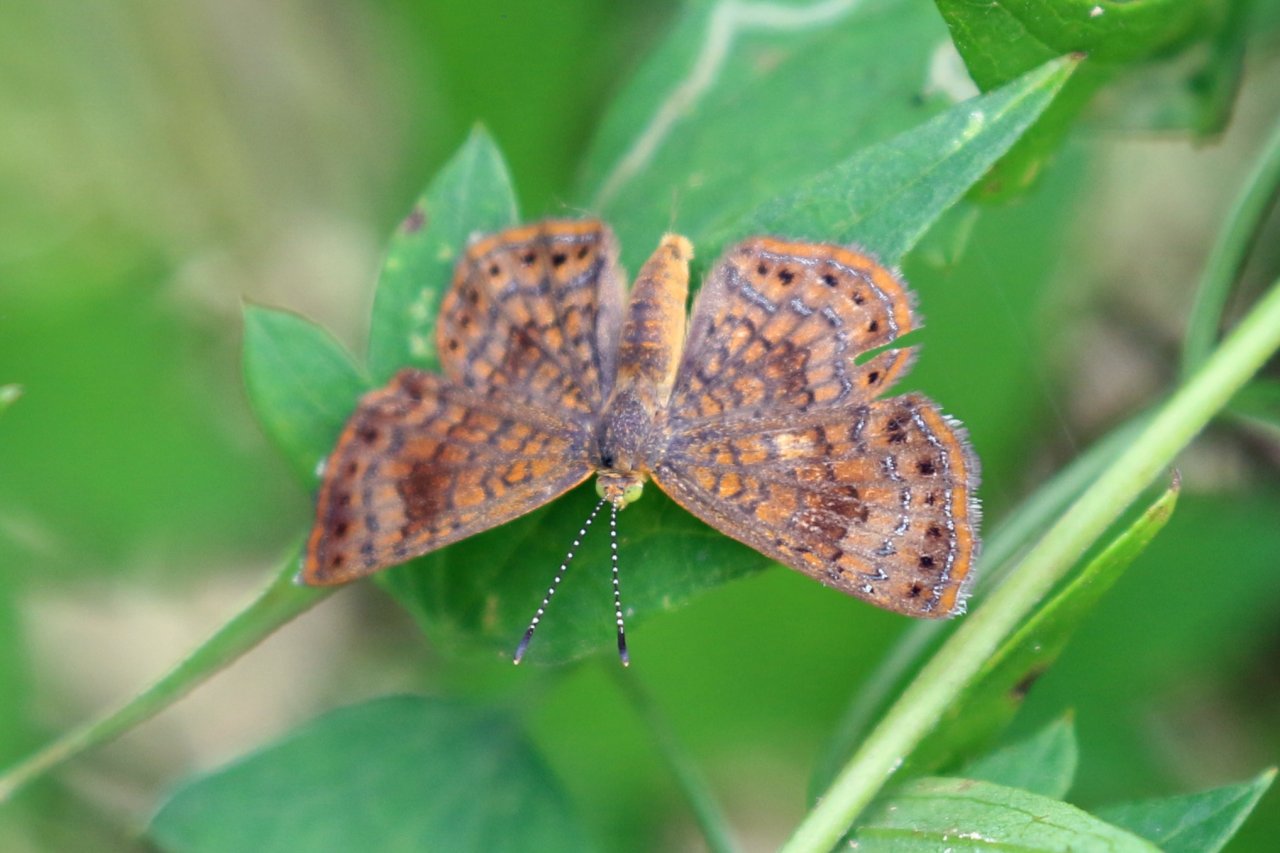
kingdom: Animalia
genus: Calephelis
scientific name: Calephelis perditalis
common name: Rounded Metalmark
